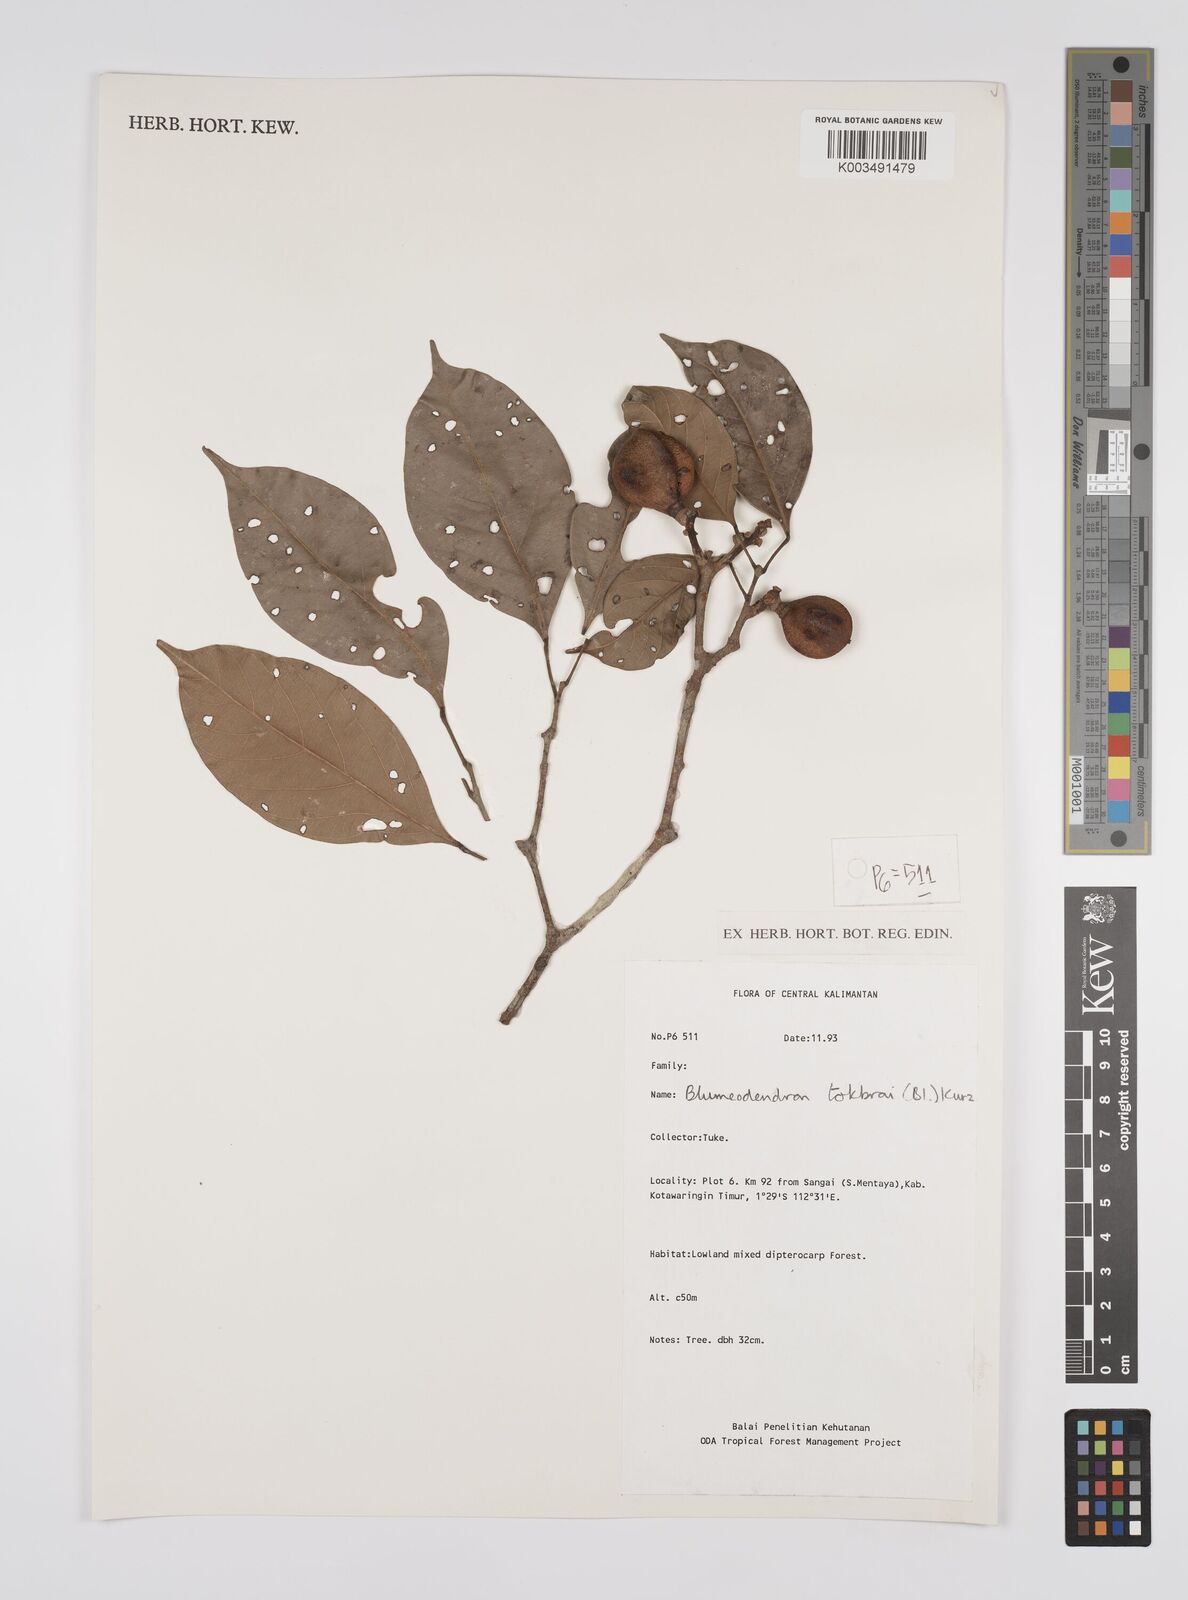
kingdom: Plantae
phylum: Tracheophyta
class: Magnoliopsida
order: Malpighiales
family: Euphorbiaceae
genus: Blumeodendron
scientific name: Blumeodendron tokbrai
